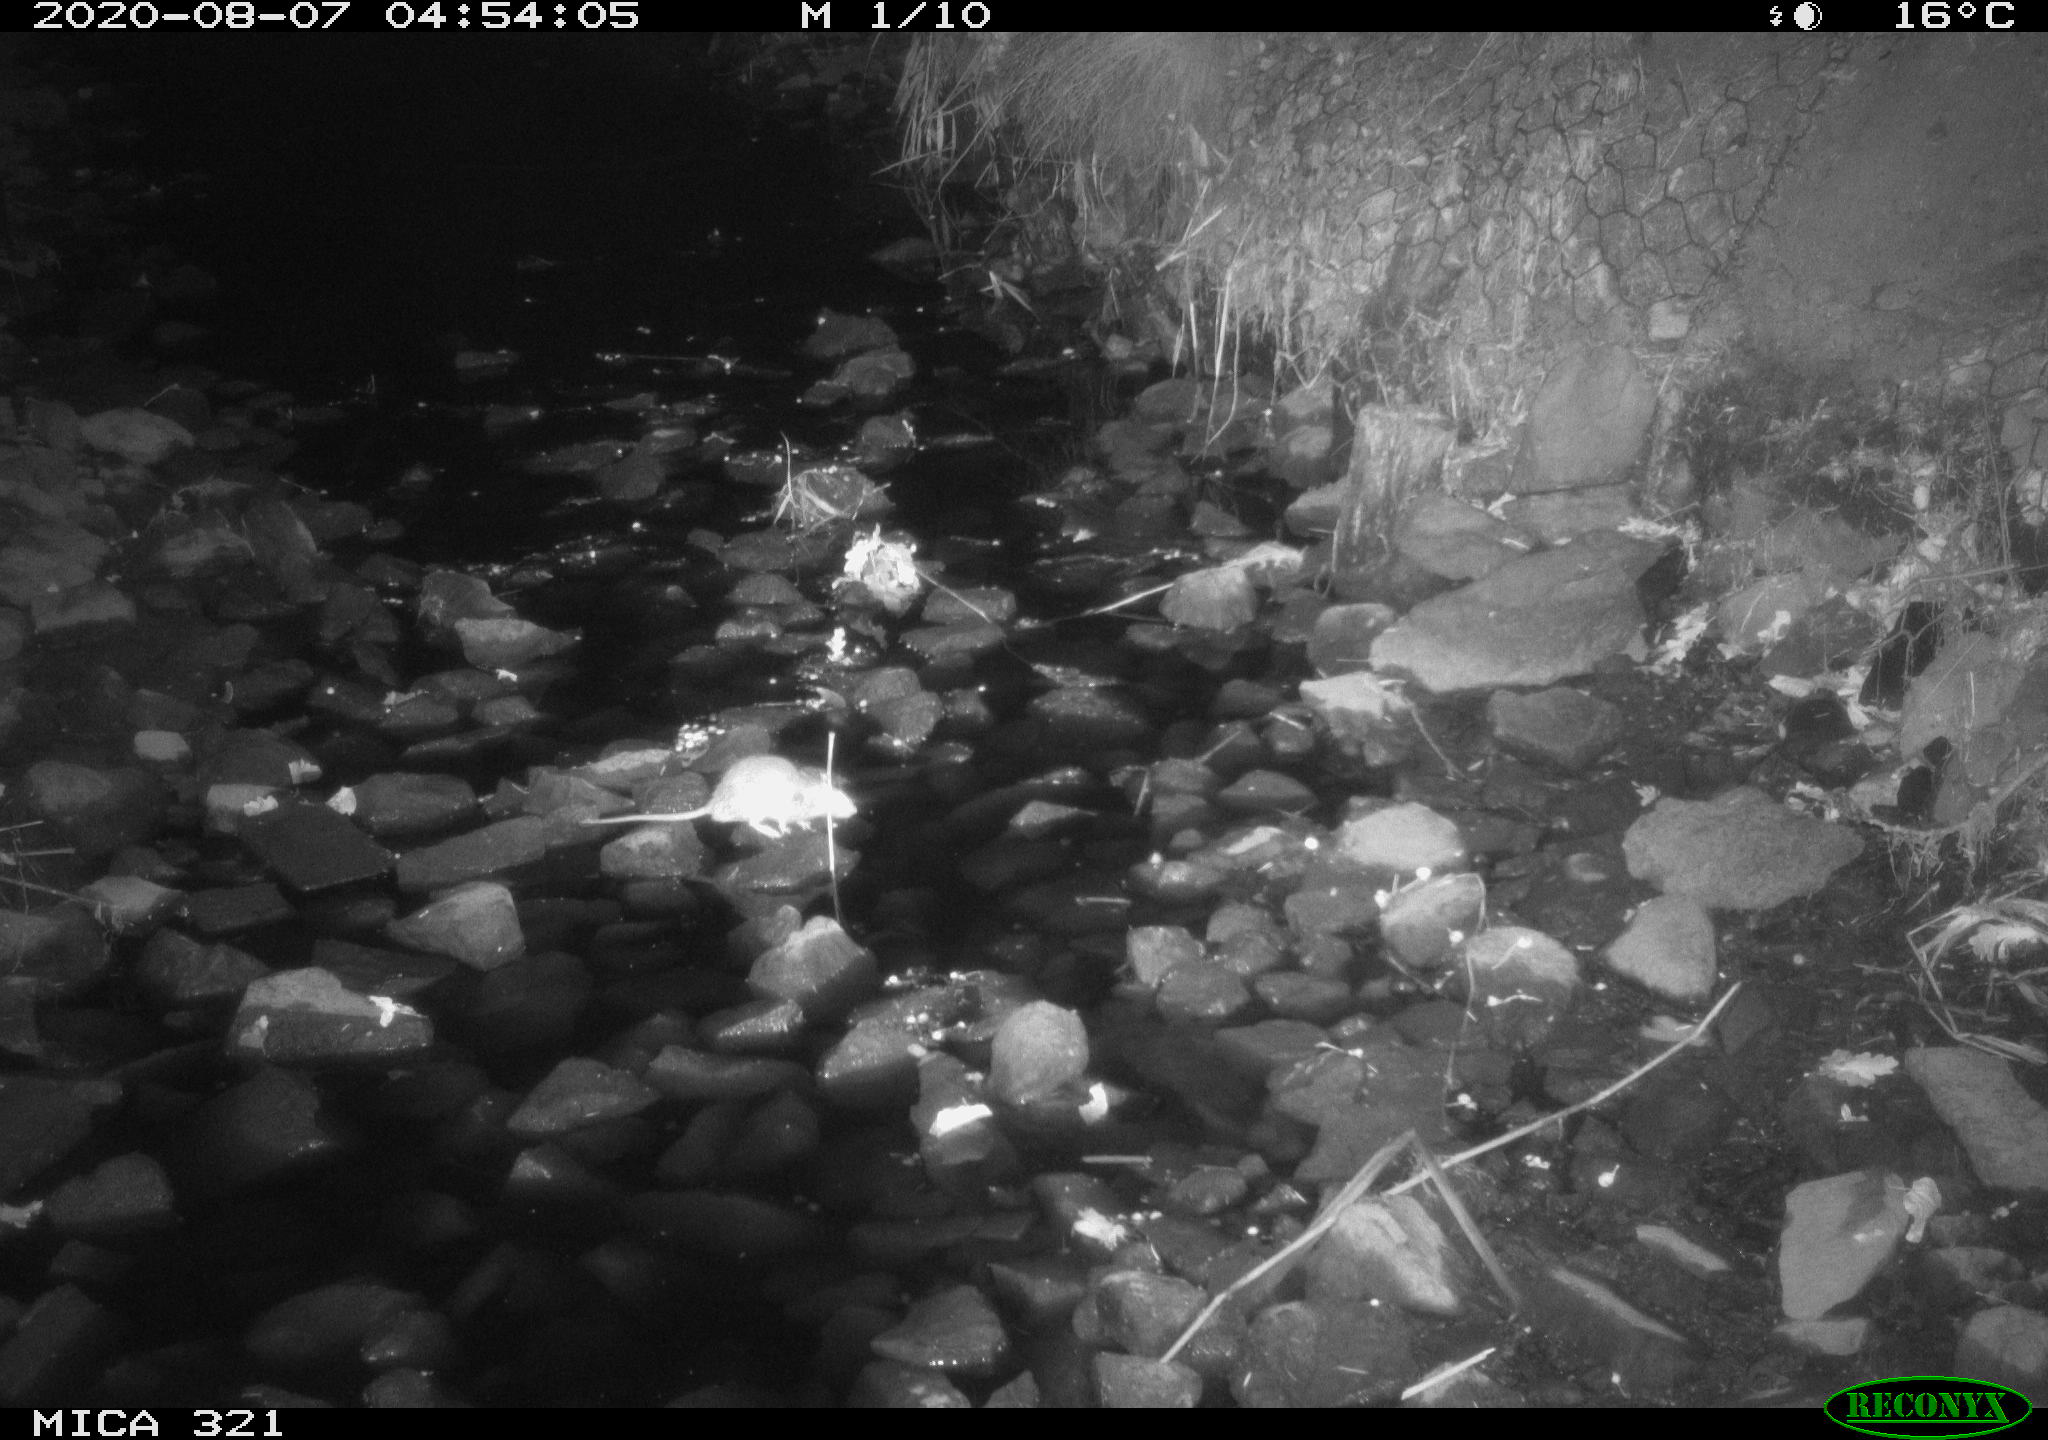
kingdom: Animalia
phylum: Chordata
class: Mammalia
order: Rodentia
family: Muridae
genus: Rattus
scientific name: Rattus norvegicus
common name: Brown rat
